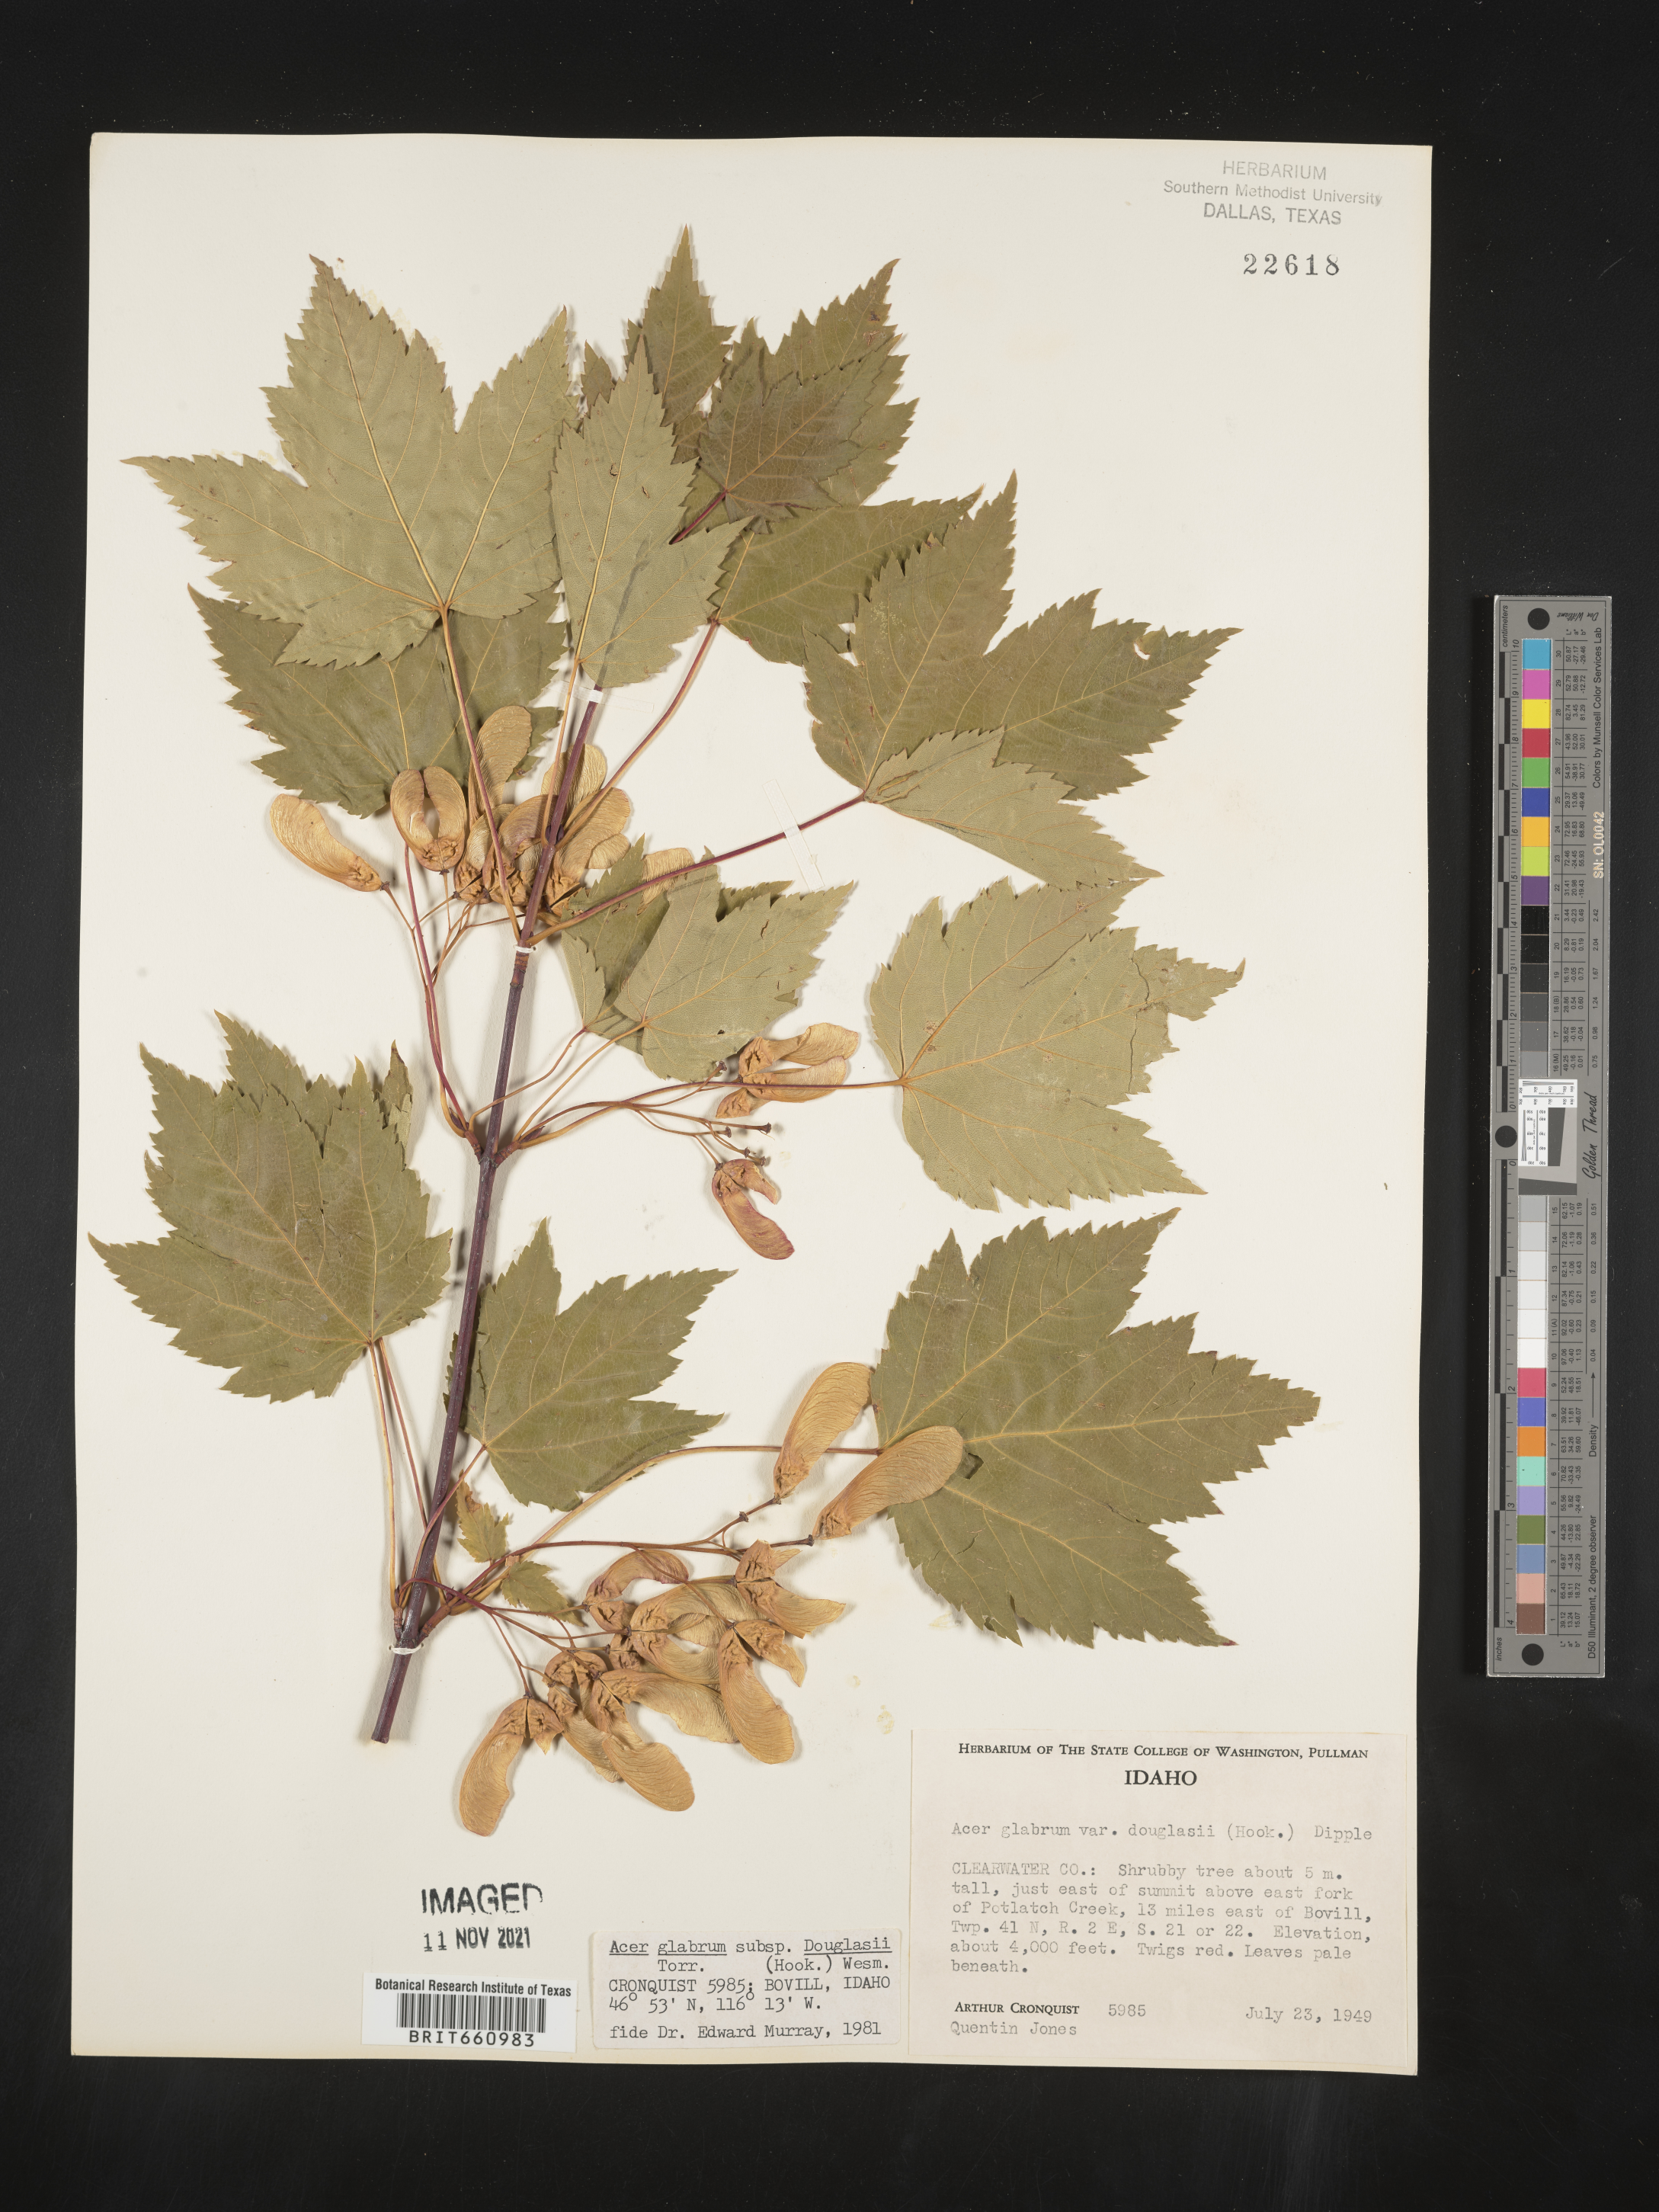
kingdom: Plantae
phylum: Tracheophyta
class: Magnoliopsida
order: Sapindales
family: Sapindaceae
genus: Acer
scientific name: Acer glabrum
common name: Rocky mountain maple
